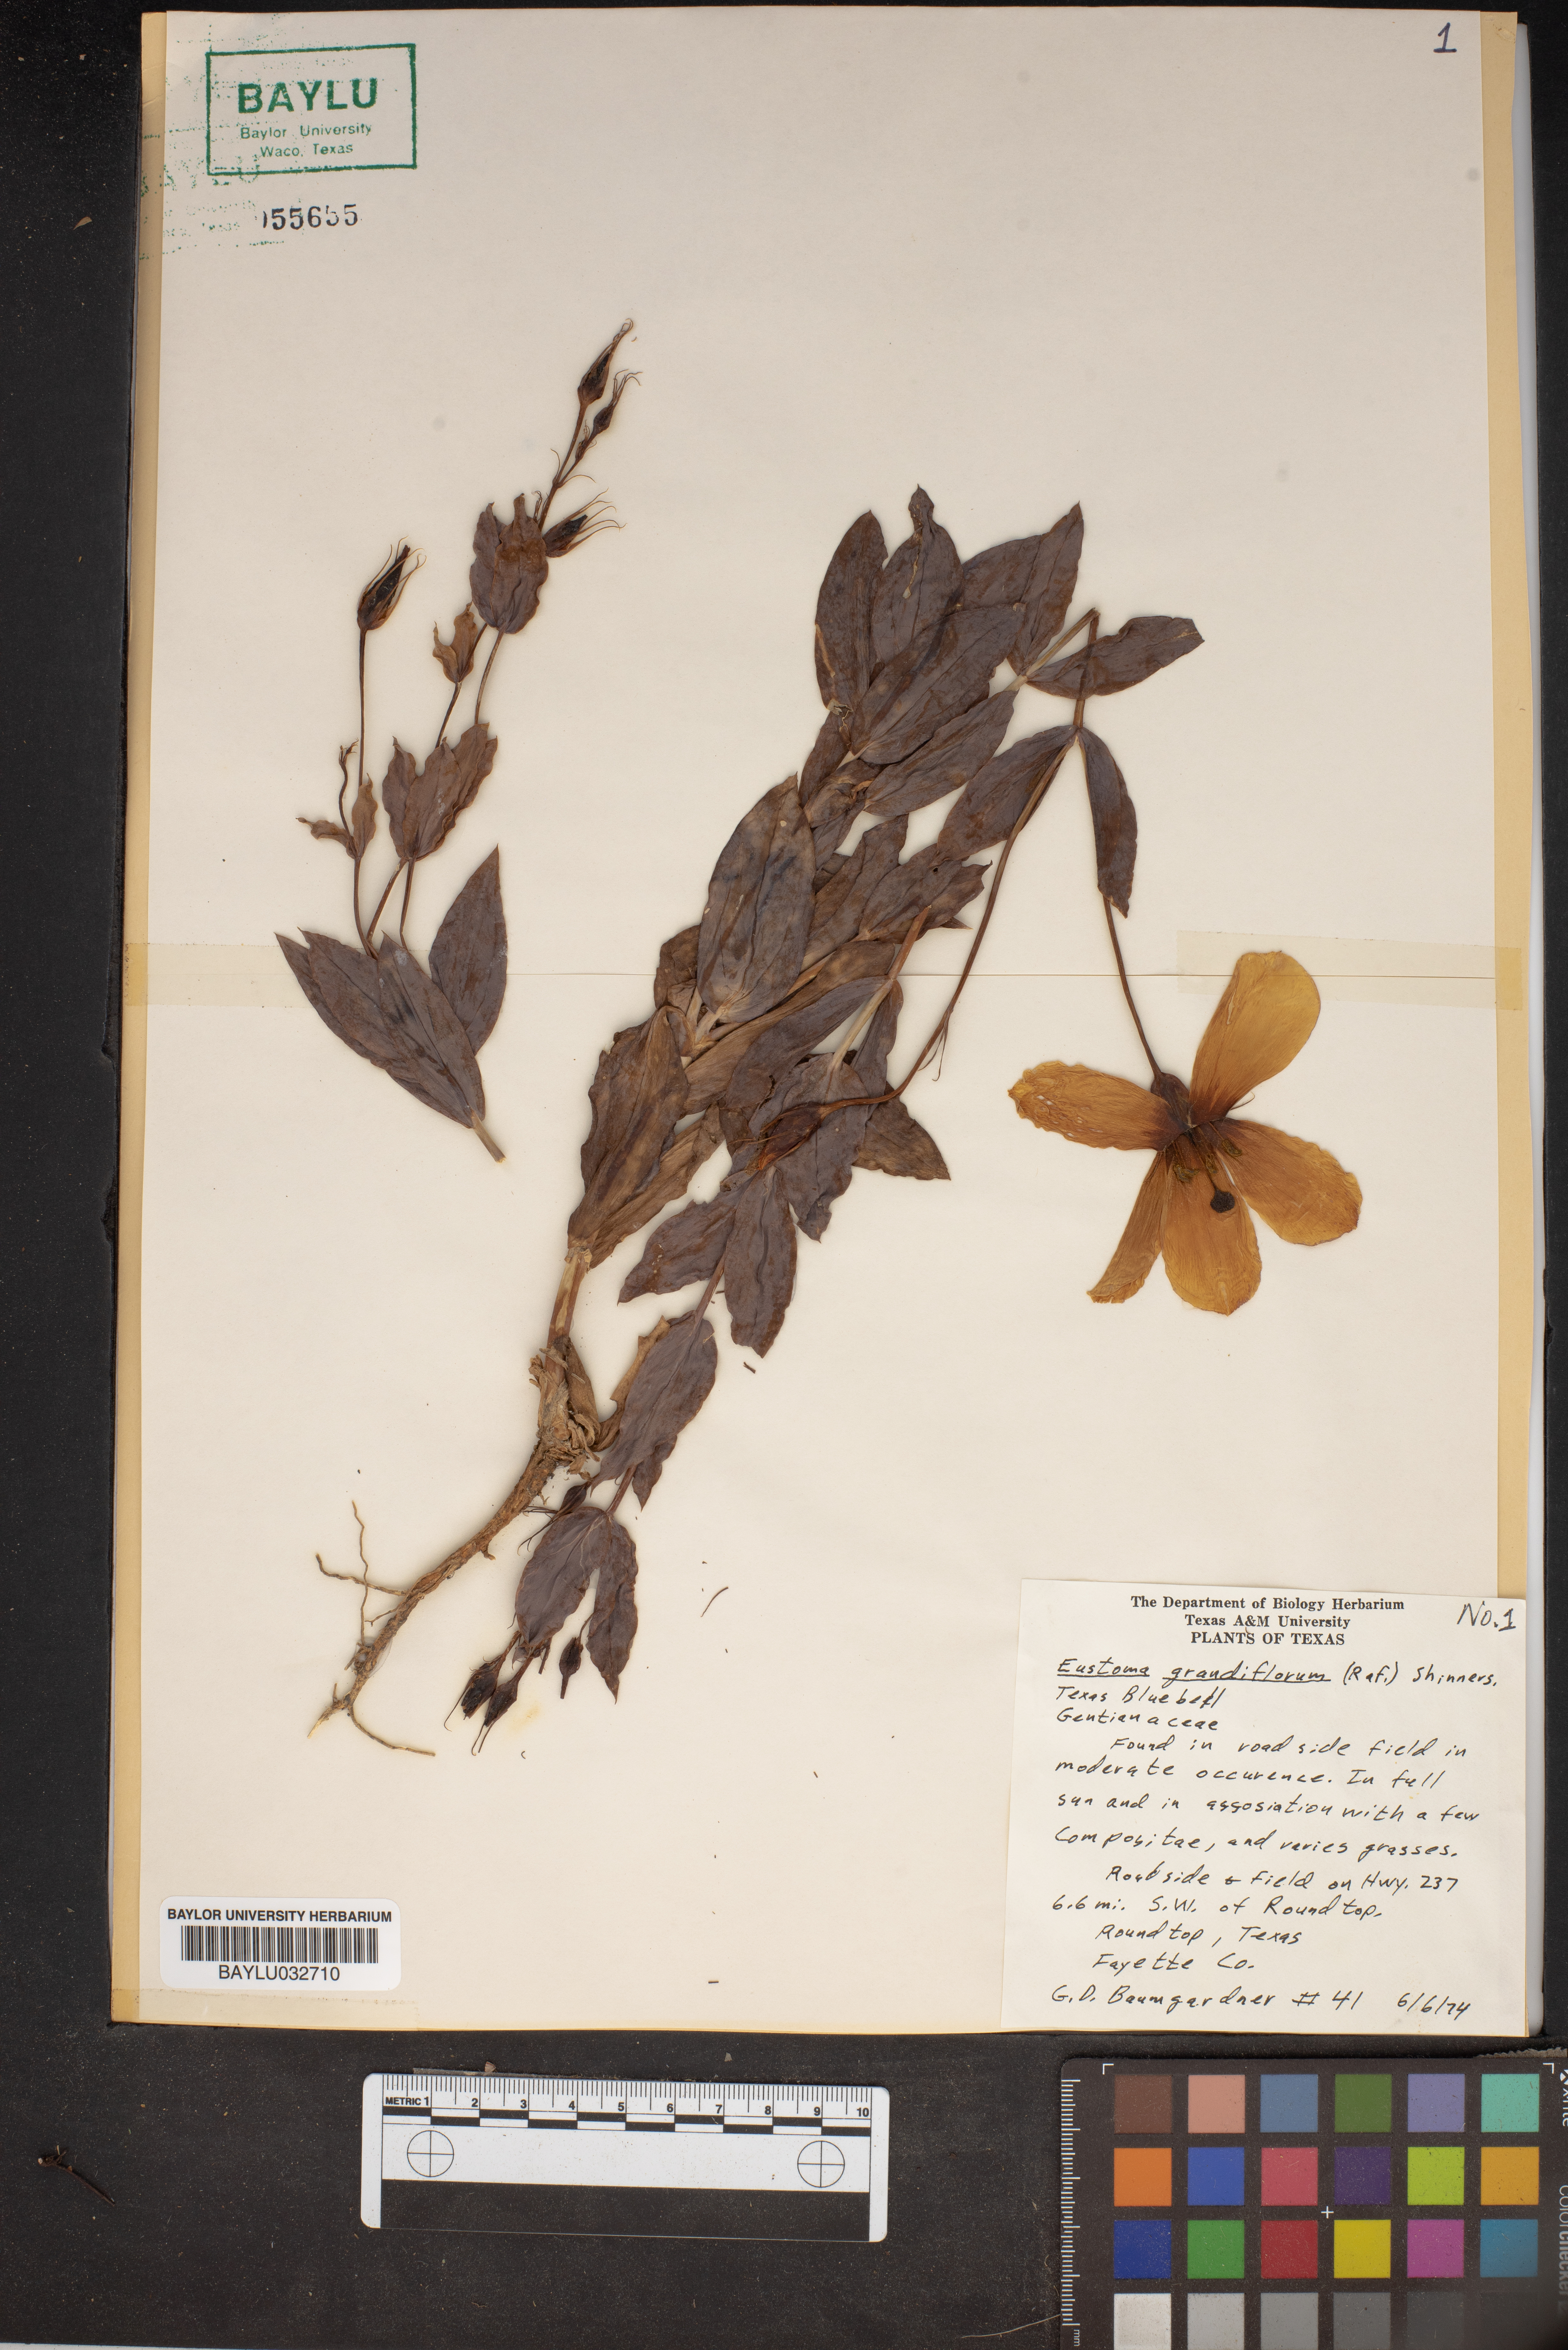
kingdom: Plantae
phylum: Tracheophyta
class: Magnoliopsida
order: Gentianales
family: Gentianaceae
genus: Eustoma
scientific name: Eustoma russellianum
